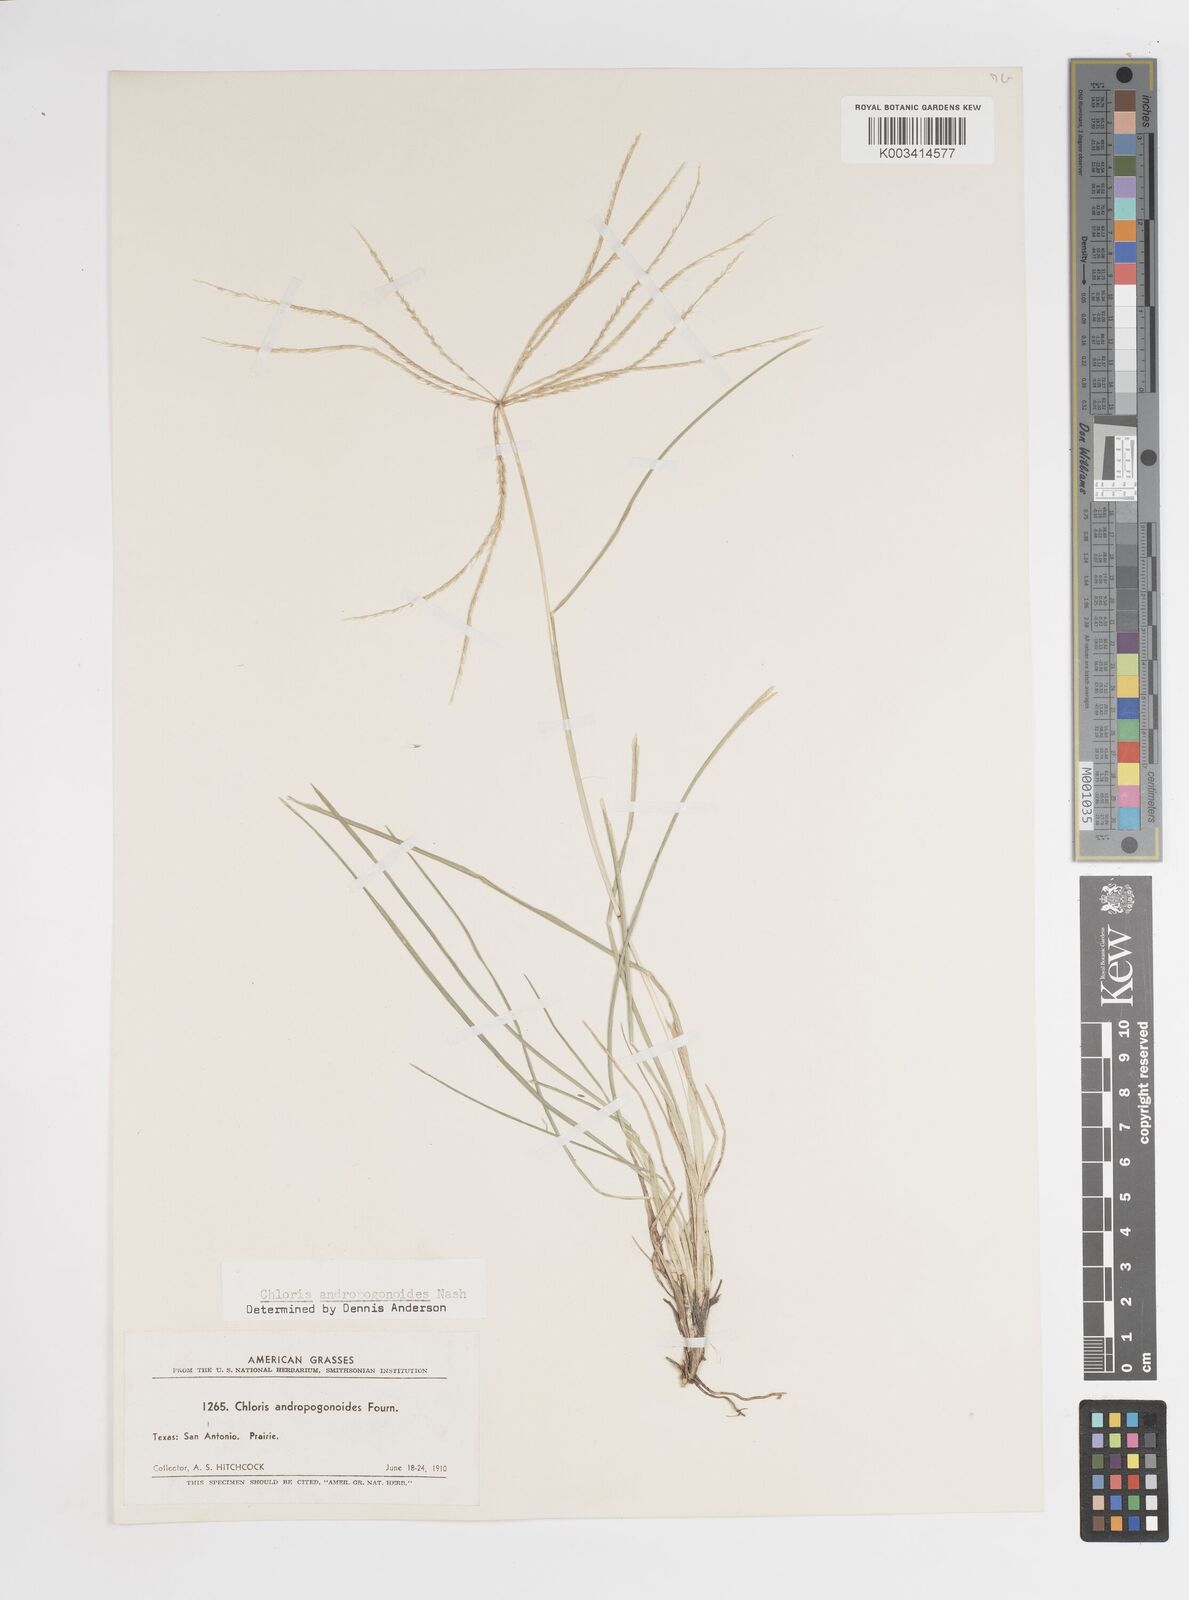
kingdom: Plantae
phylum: Tracheophyta
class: Liliopsida
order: Poales
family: Poaceae
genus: Chloris
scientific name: Chloris andropogonoides
